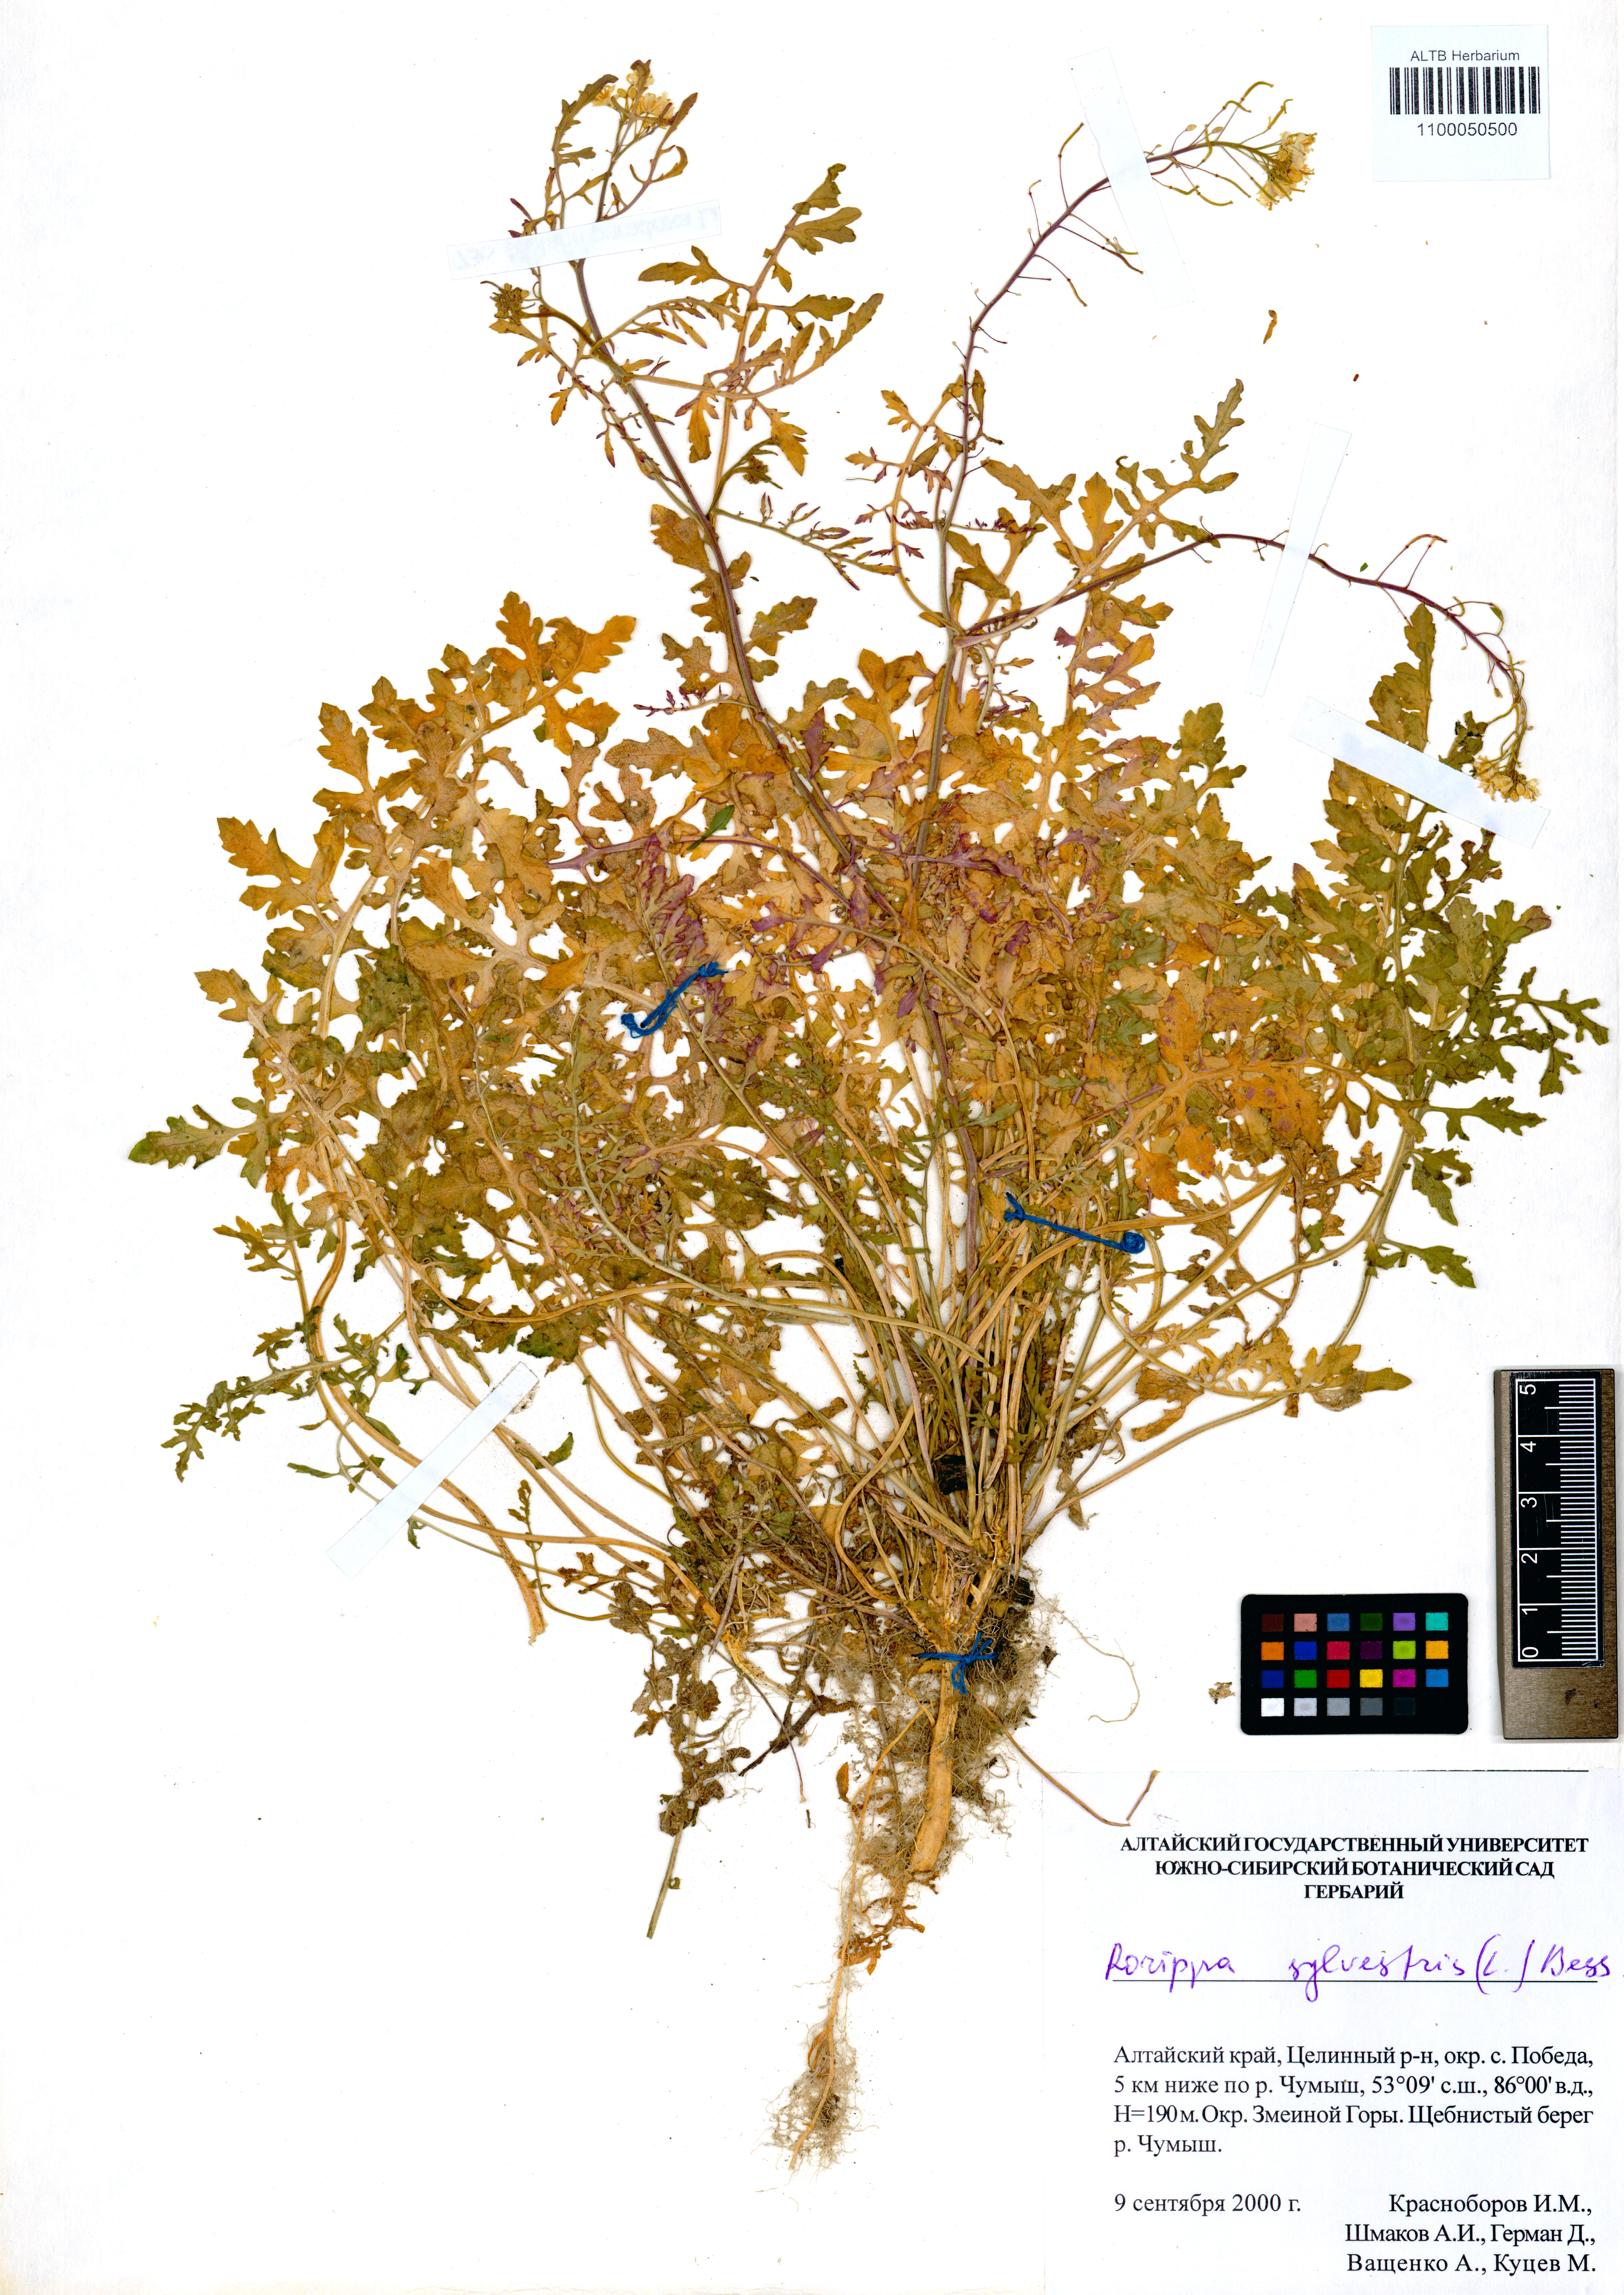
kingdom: Plantae
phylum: Tracheophyta
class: Magnoliopsida
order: Brassicales
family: Brassicaceae
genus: Rorippa
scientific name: Rorippa sylvestris
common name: Creeping yellowcress
